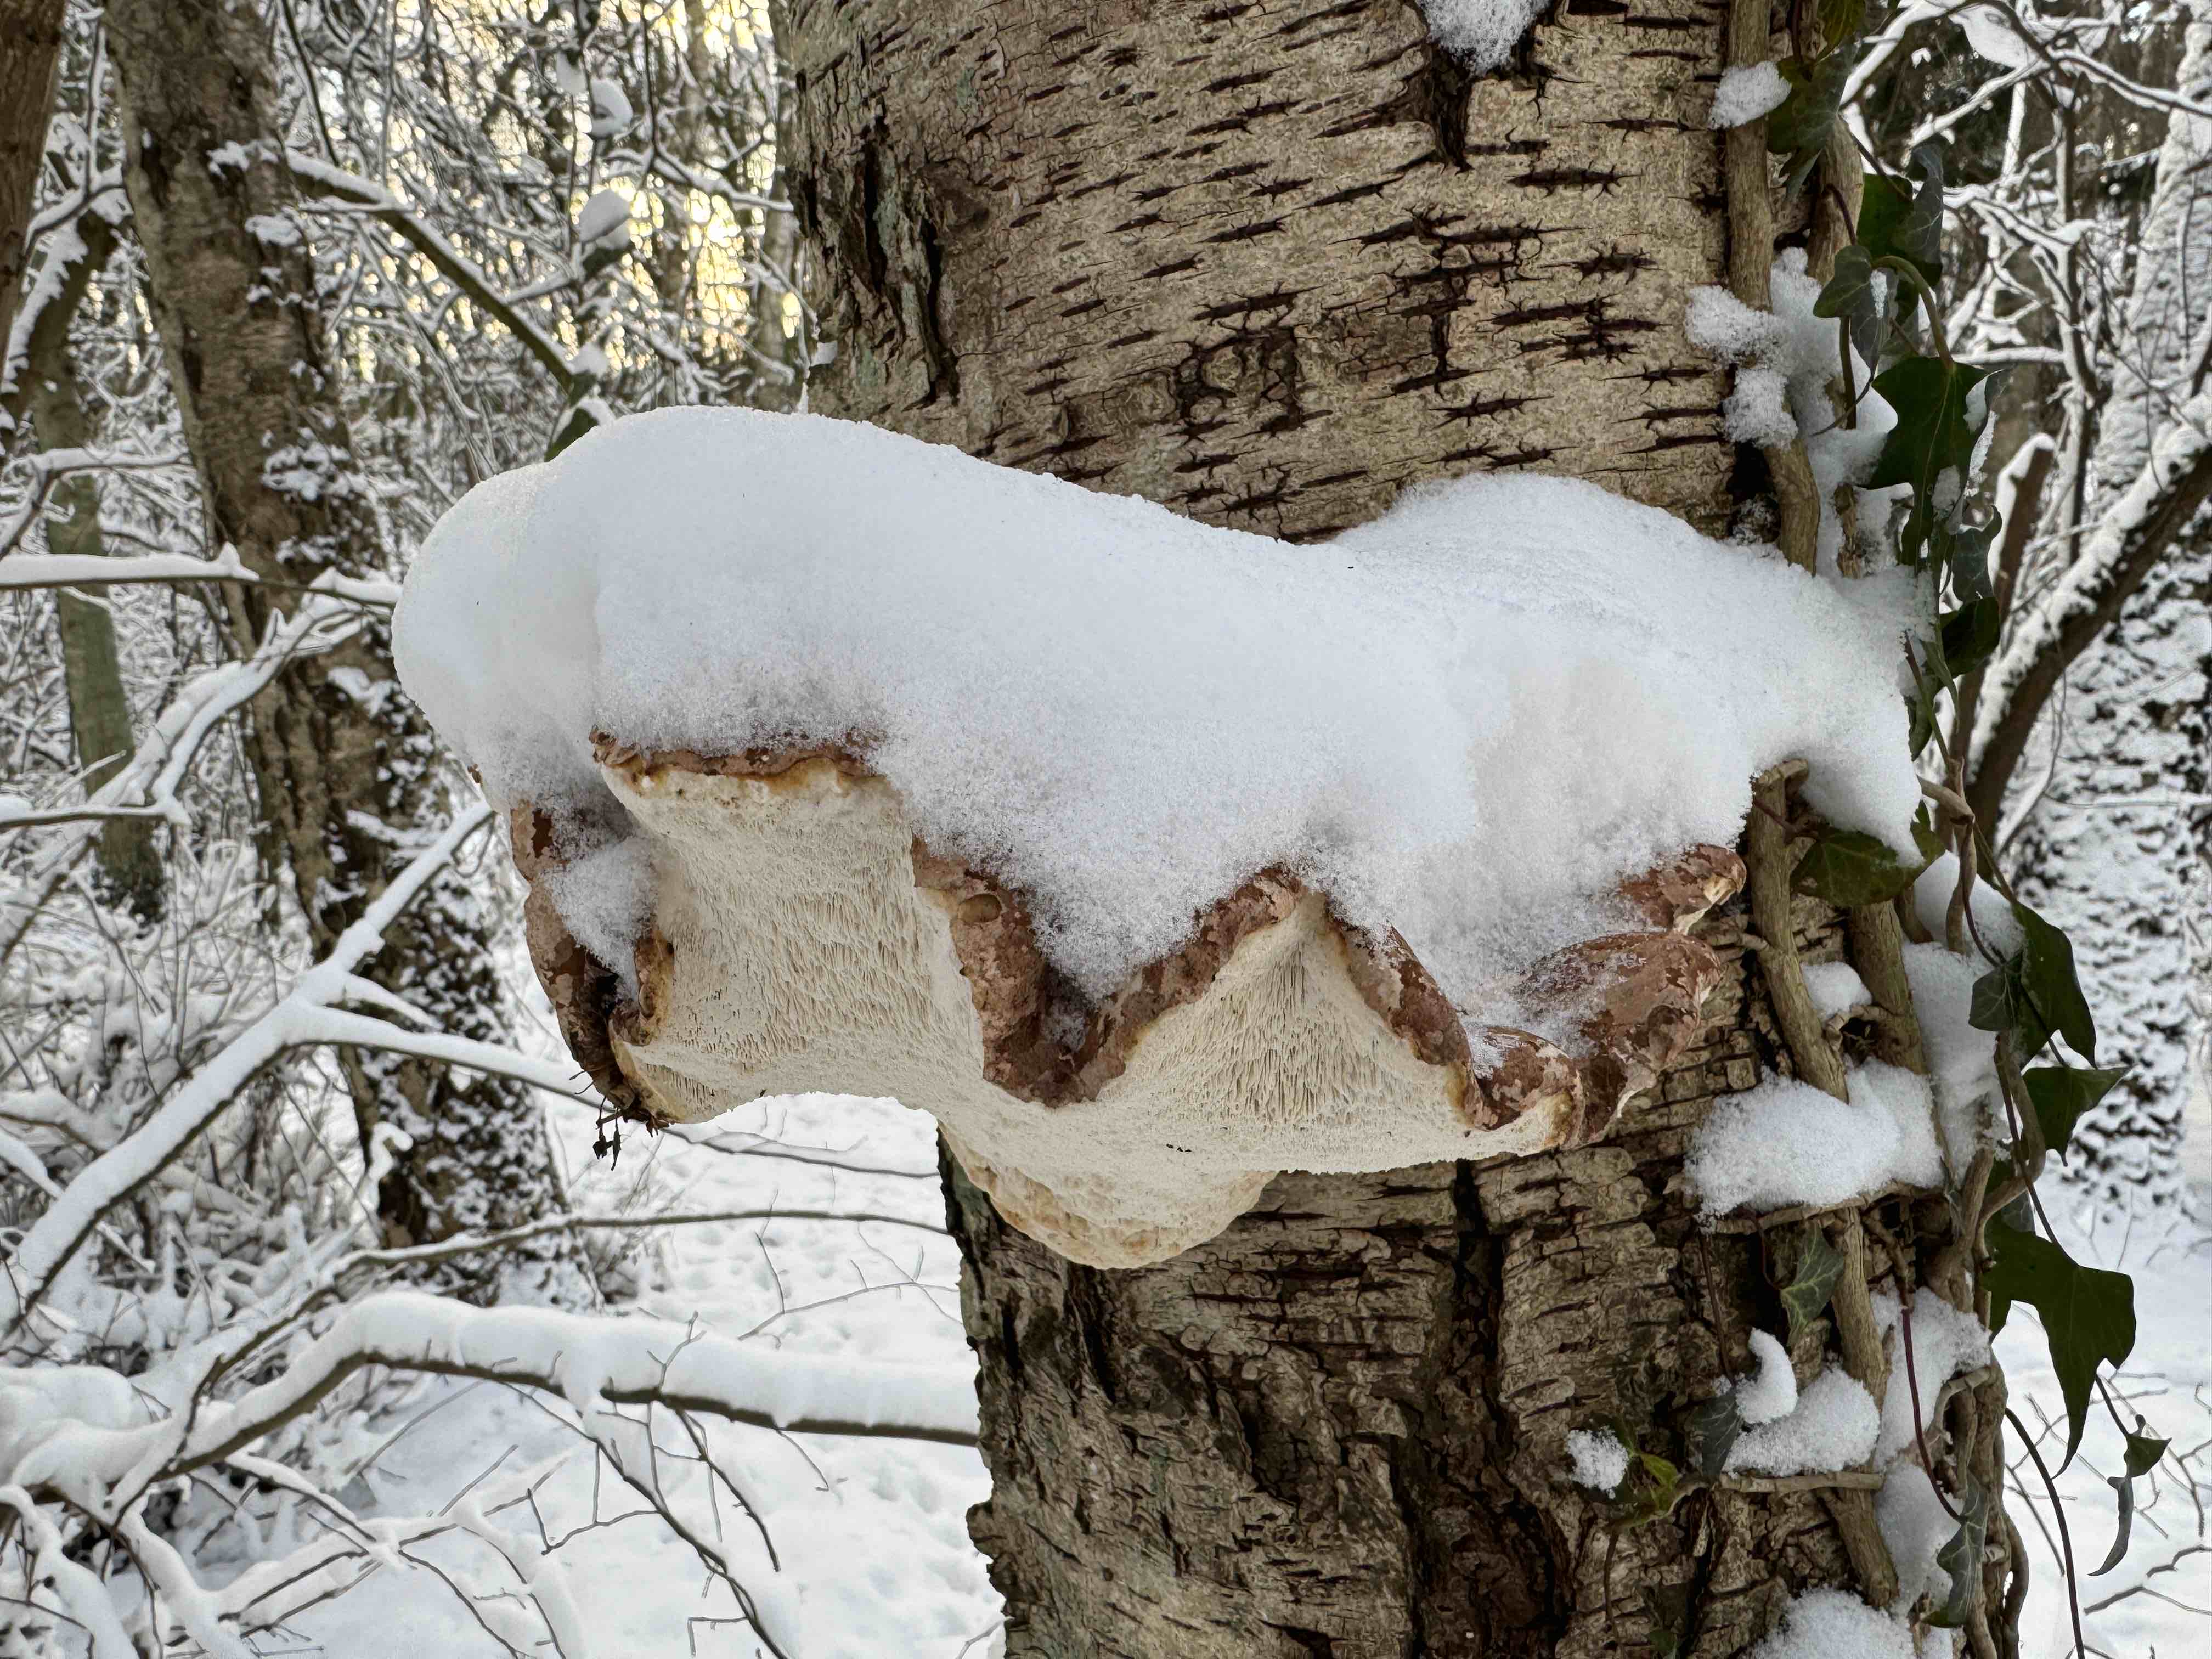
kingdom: Fungi
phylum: Basidiomycota
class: Agaricomycetes
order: Polyporales
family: Fomitopsidaceae
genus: Fomitopsis
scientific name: Fomitopsis betulina
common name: birkeporesvamp
